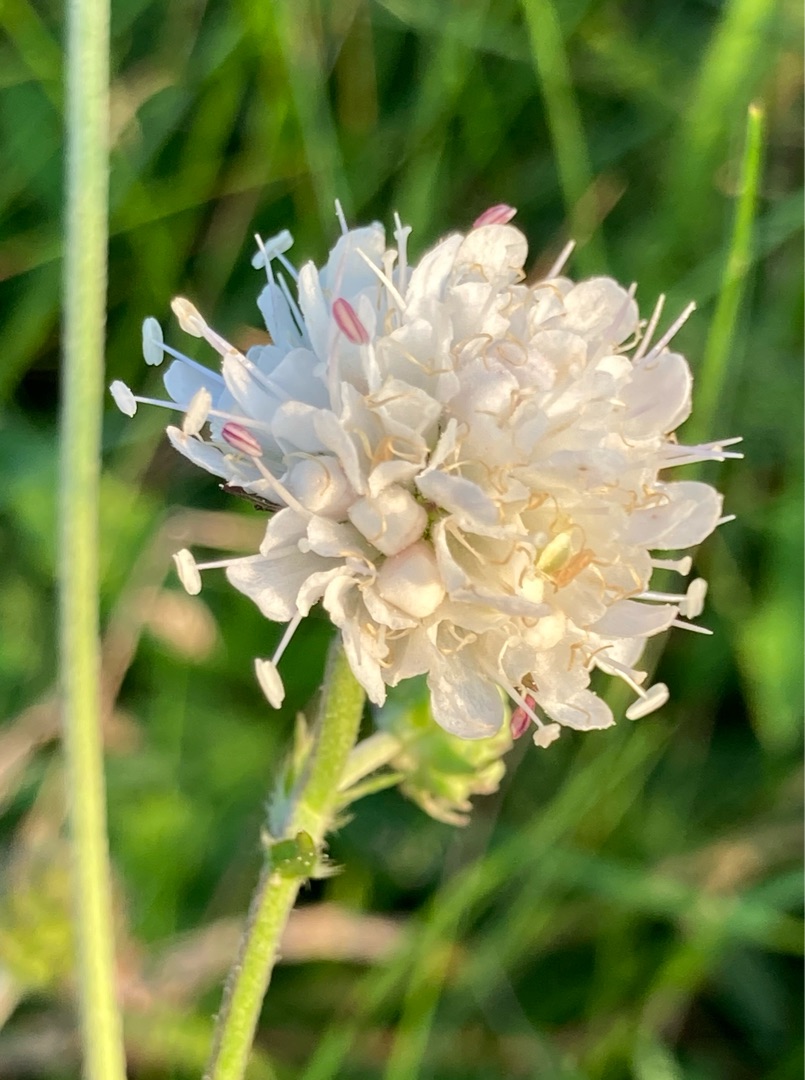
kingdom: Plantae
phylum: Tracheophyta
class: Magnoliopsida
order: Dipsacales
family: Caprifoliaceae
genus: Succisa
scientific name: Succisa pratensis
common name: Djævelsbid
